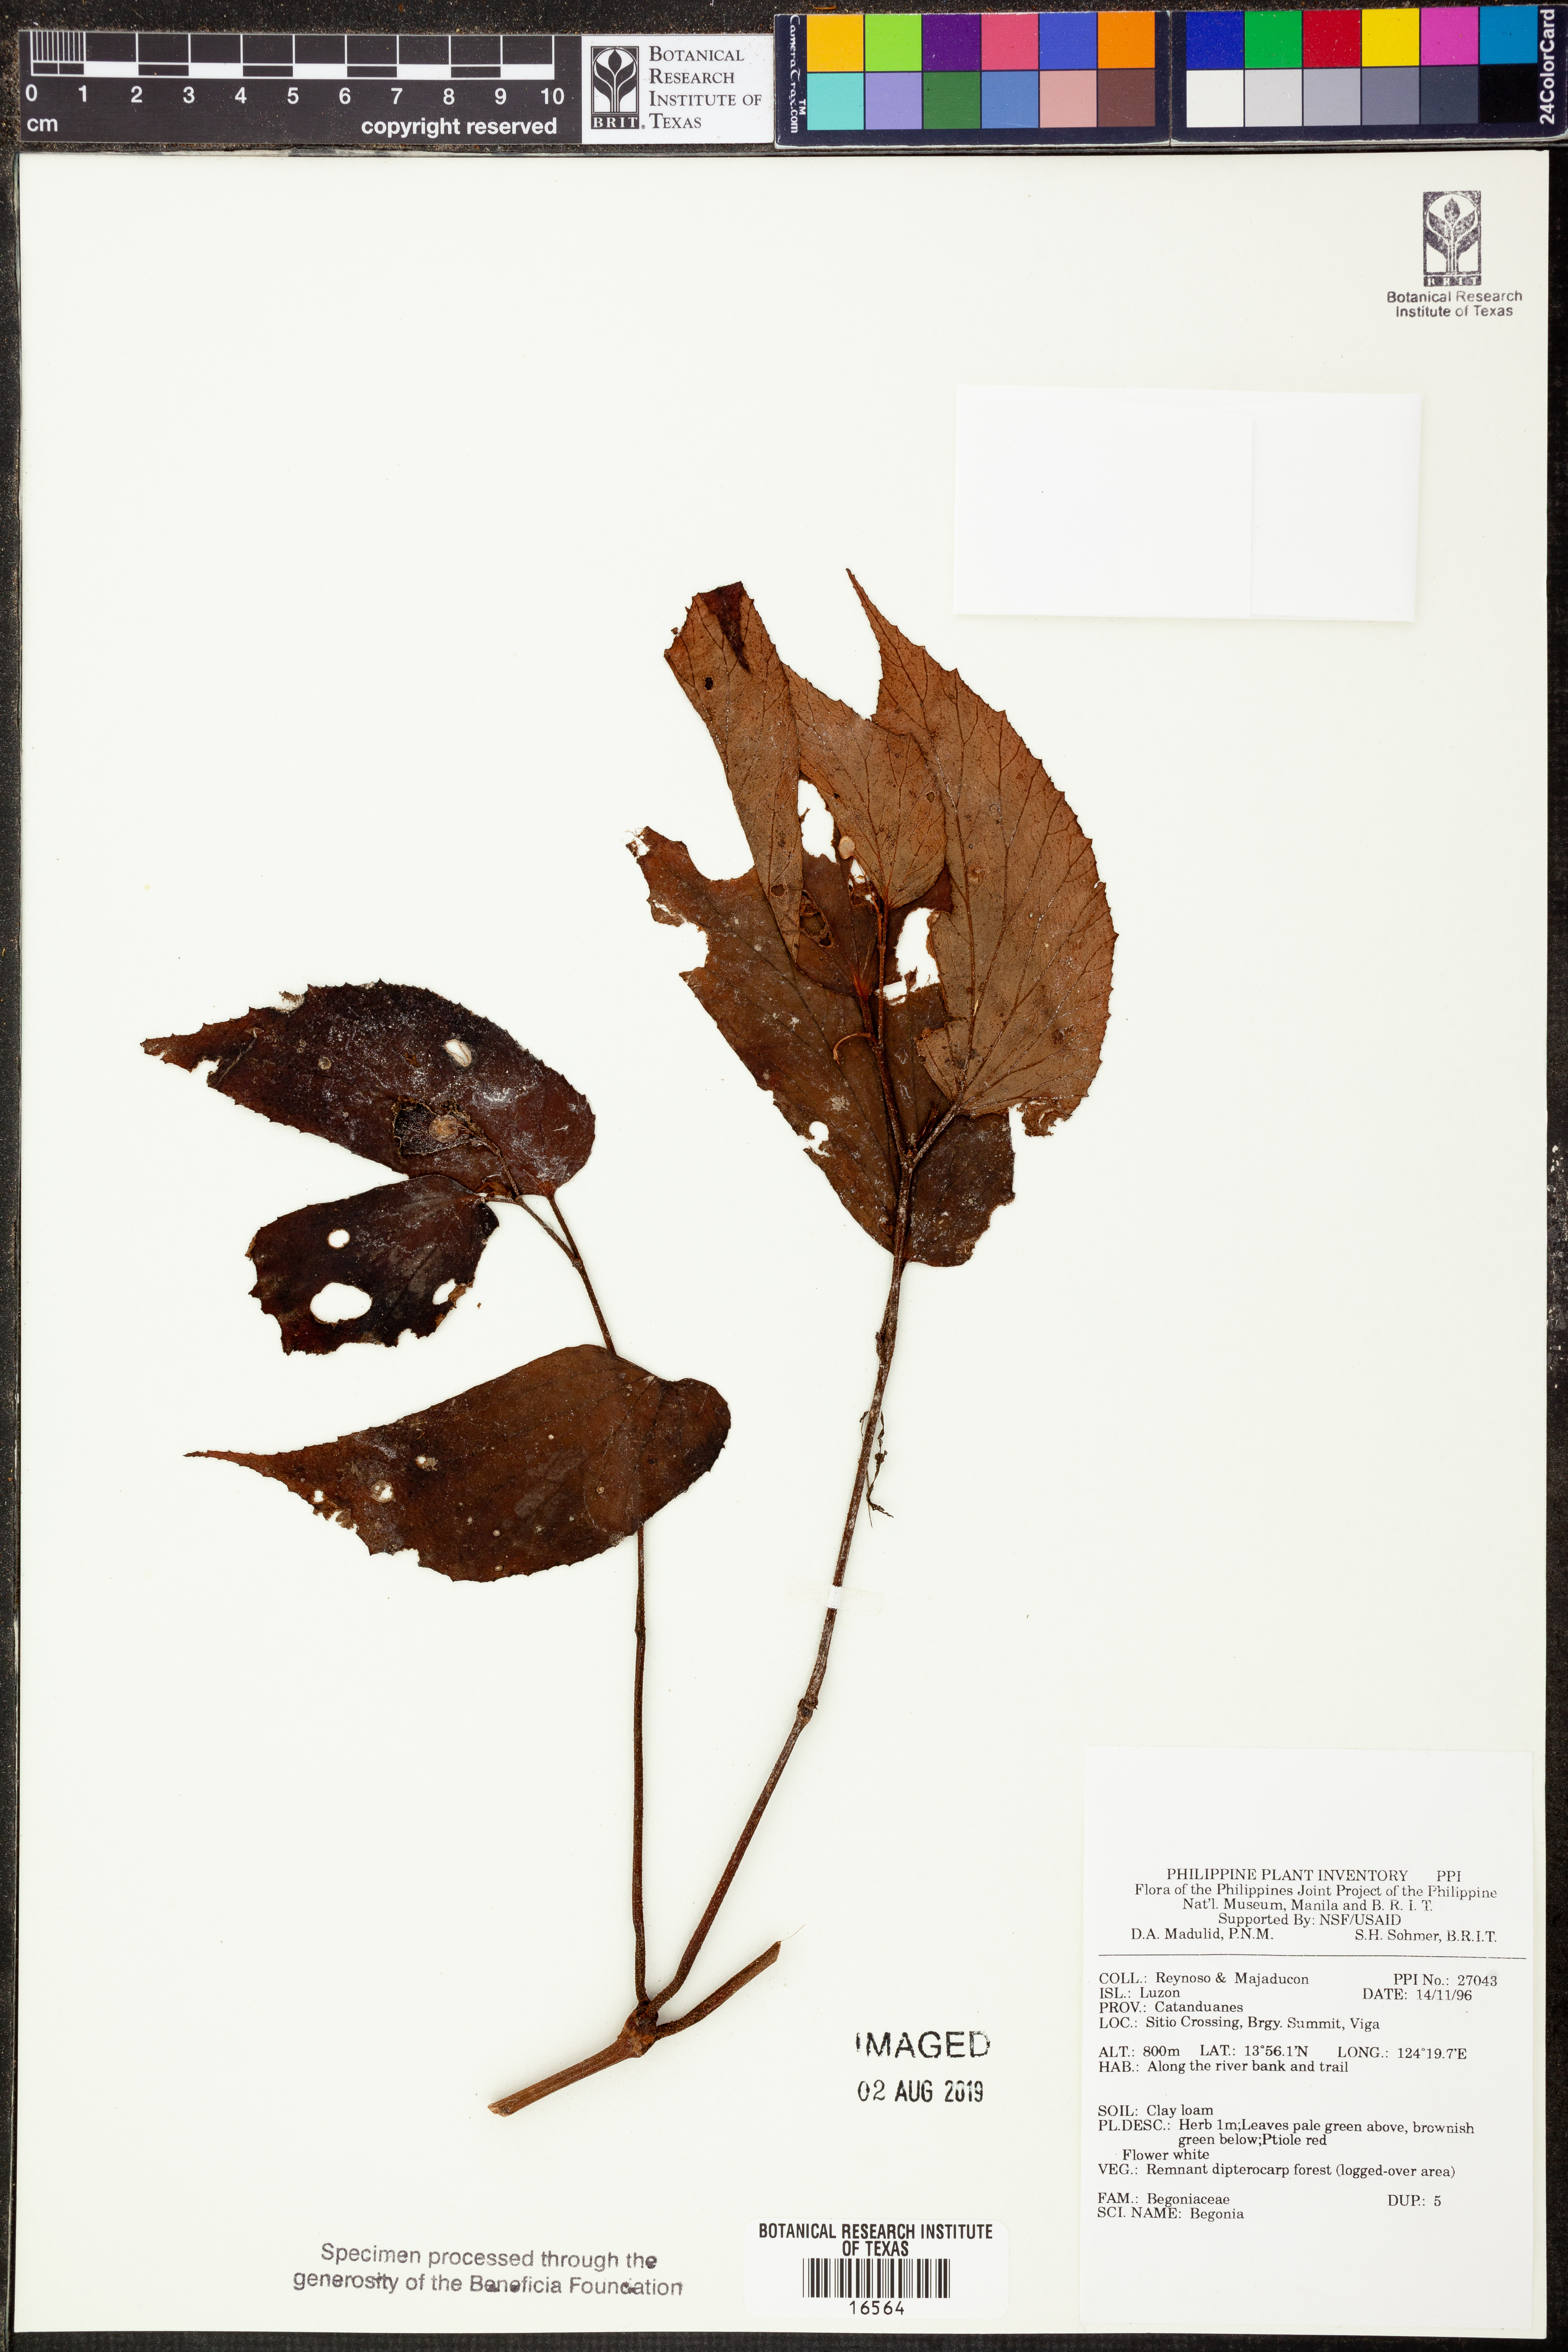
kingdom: Plantae
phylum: Tracheophyta
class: Magnoliopsida
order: Cucurbitales
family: Begoniaceae
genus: Begonia
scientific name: Begonia
